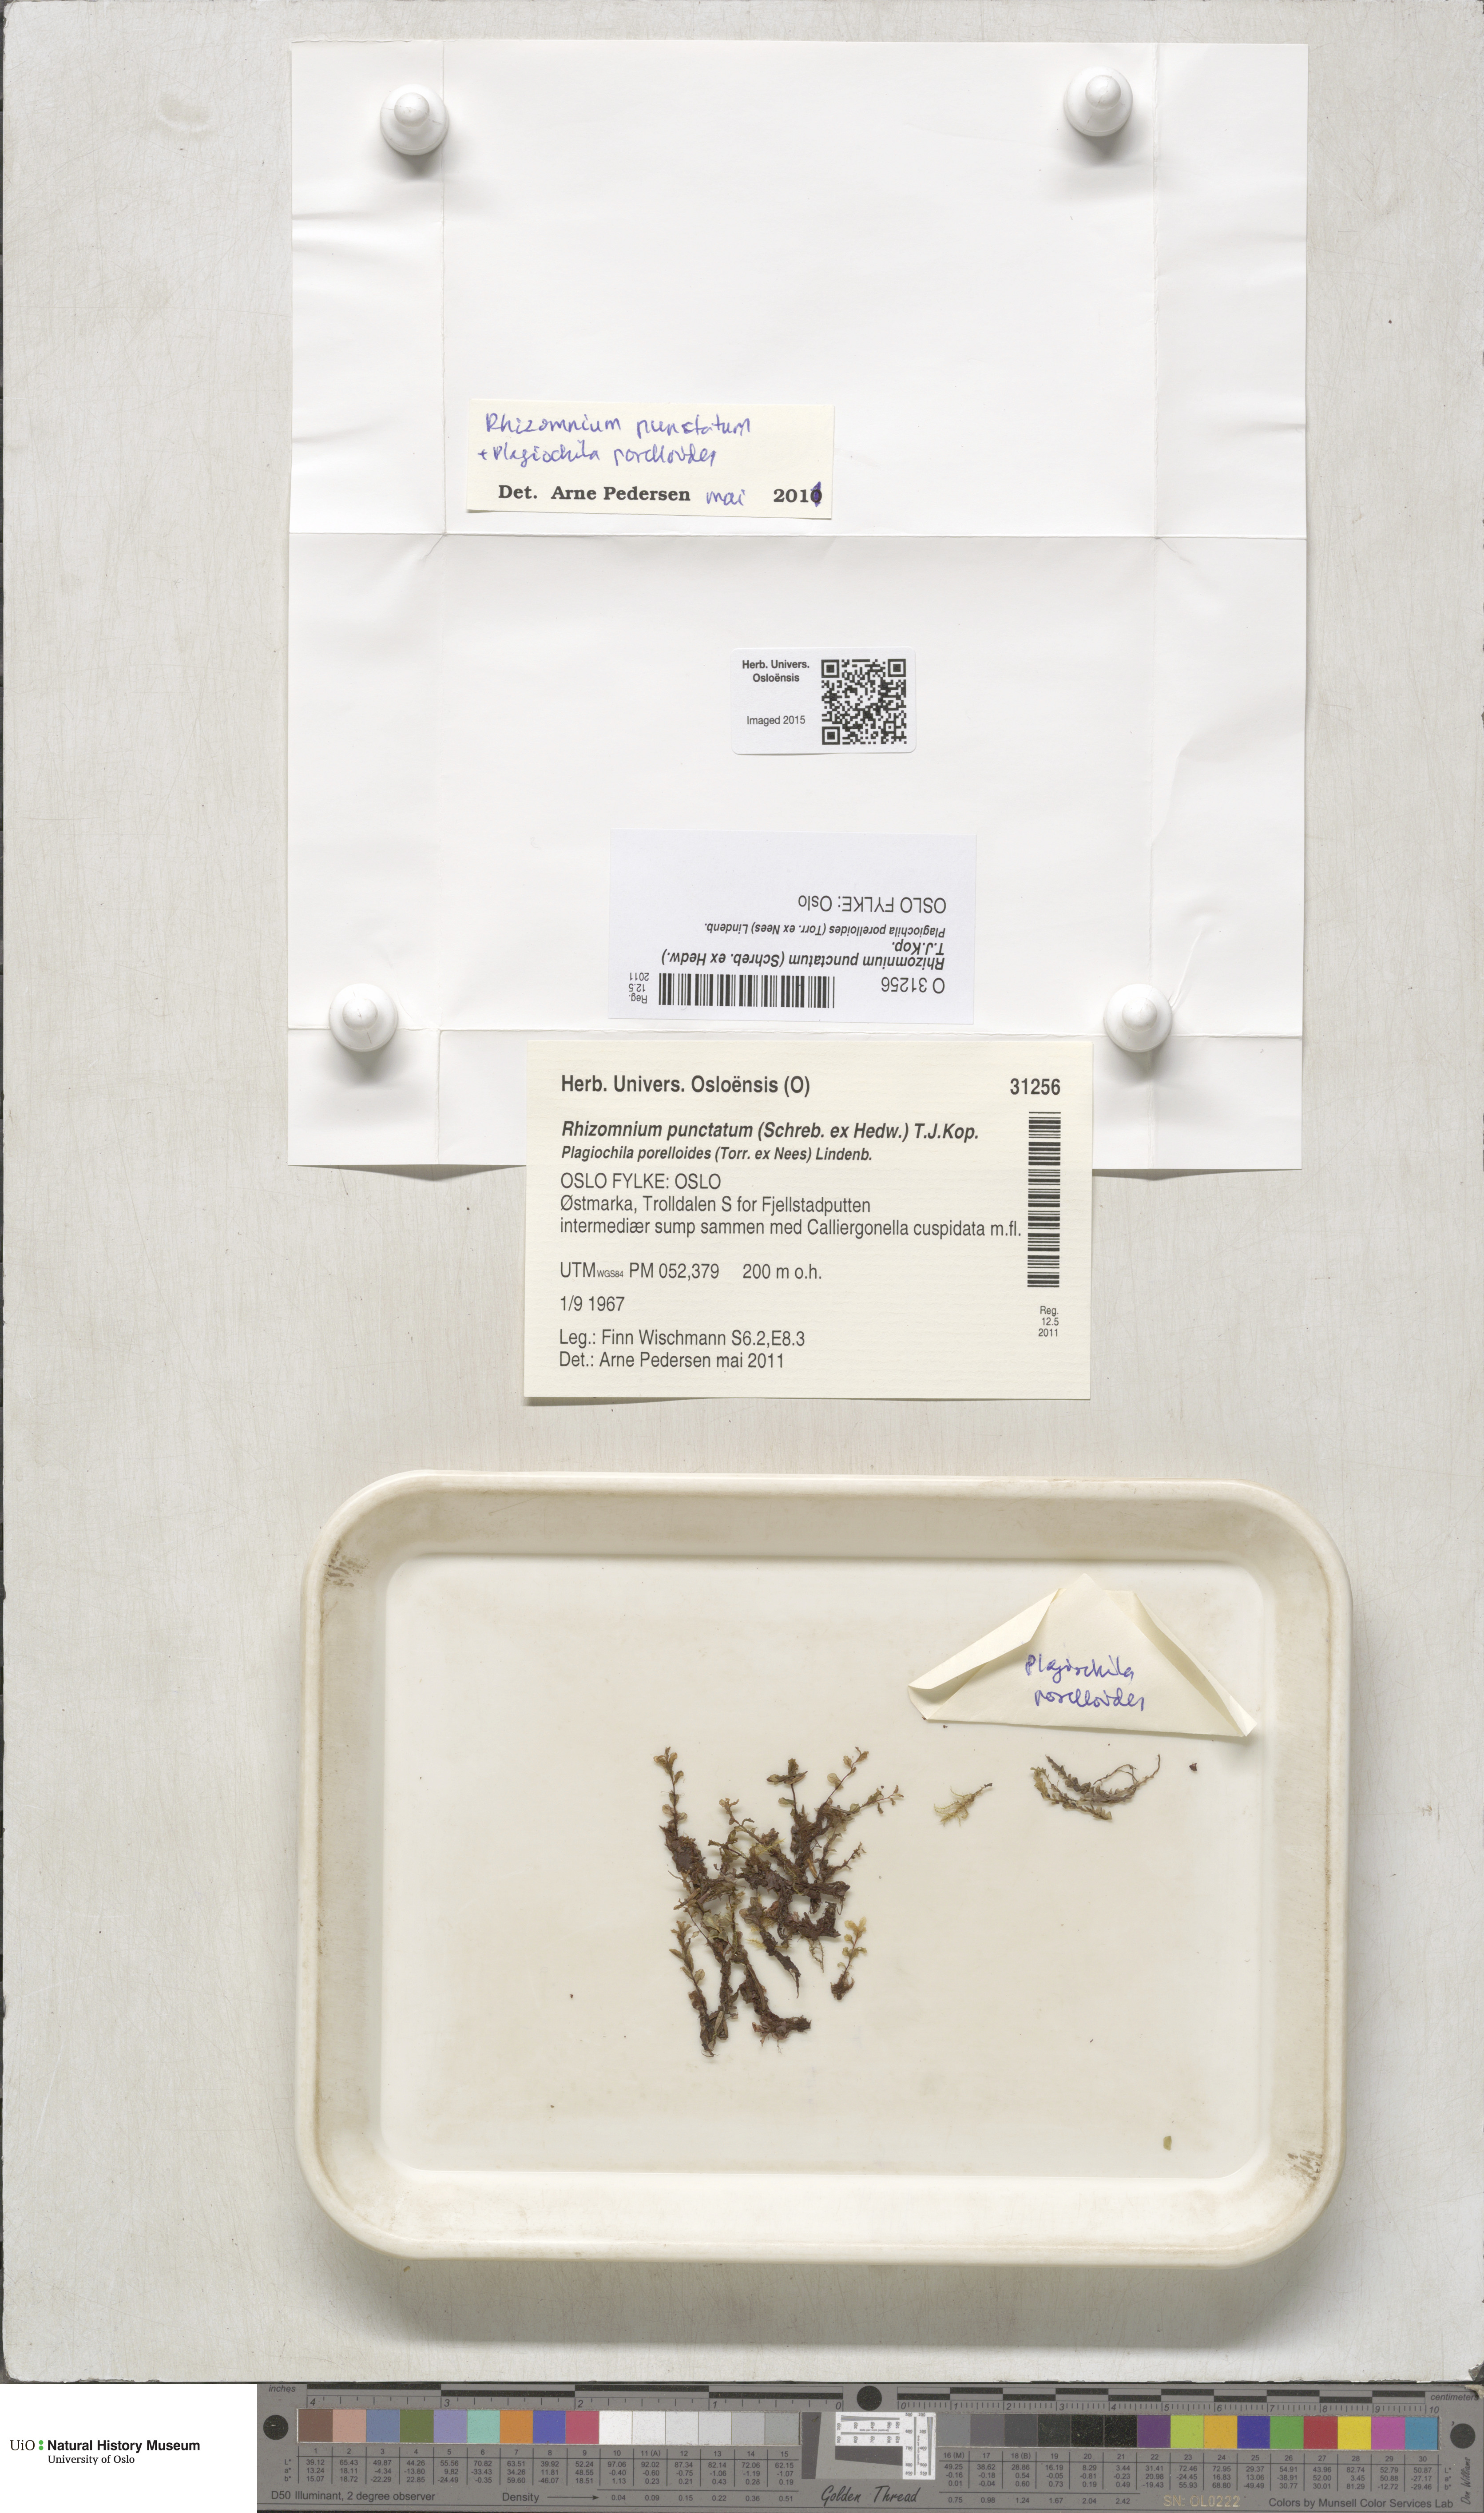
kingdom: Plantae
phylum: Bryophyta
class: Bryopsida
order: Bryales
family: Mniaceae
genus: Rhizomnium
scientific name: Rhizomnium punctatum
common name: Dotted leafy moss
